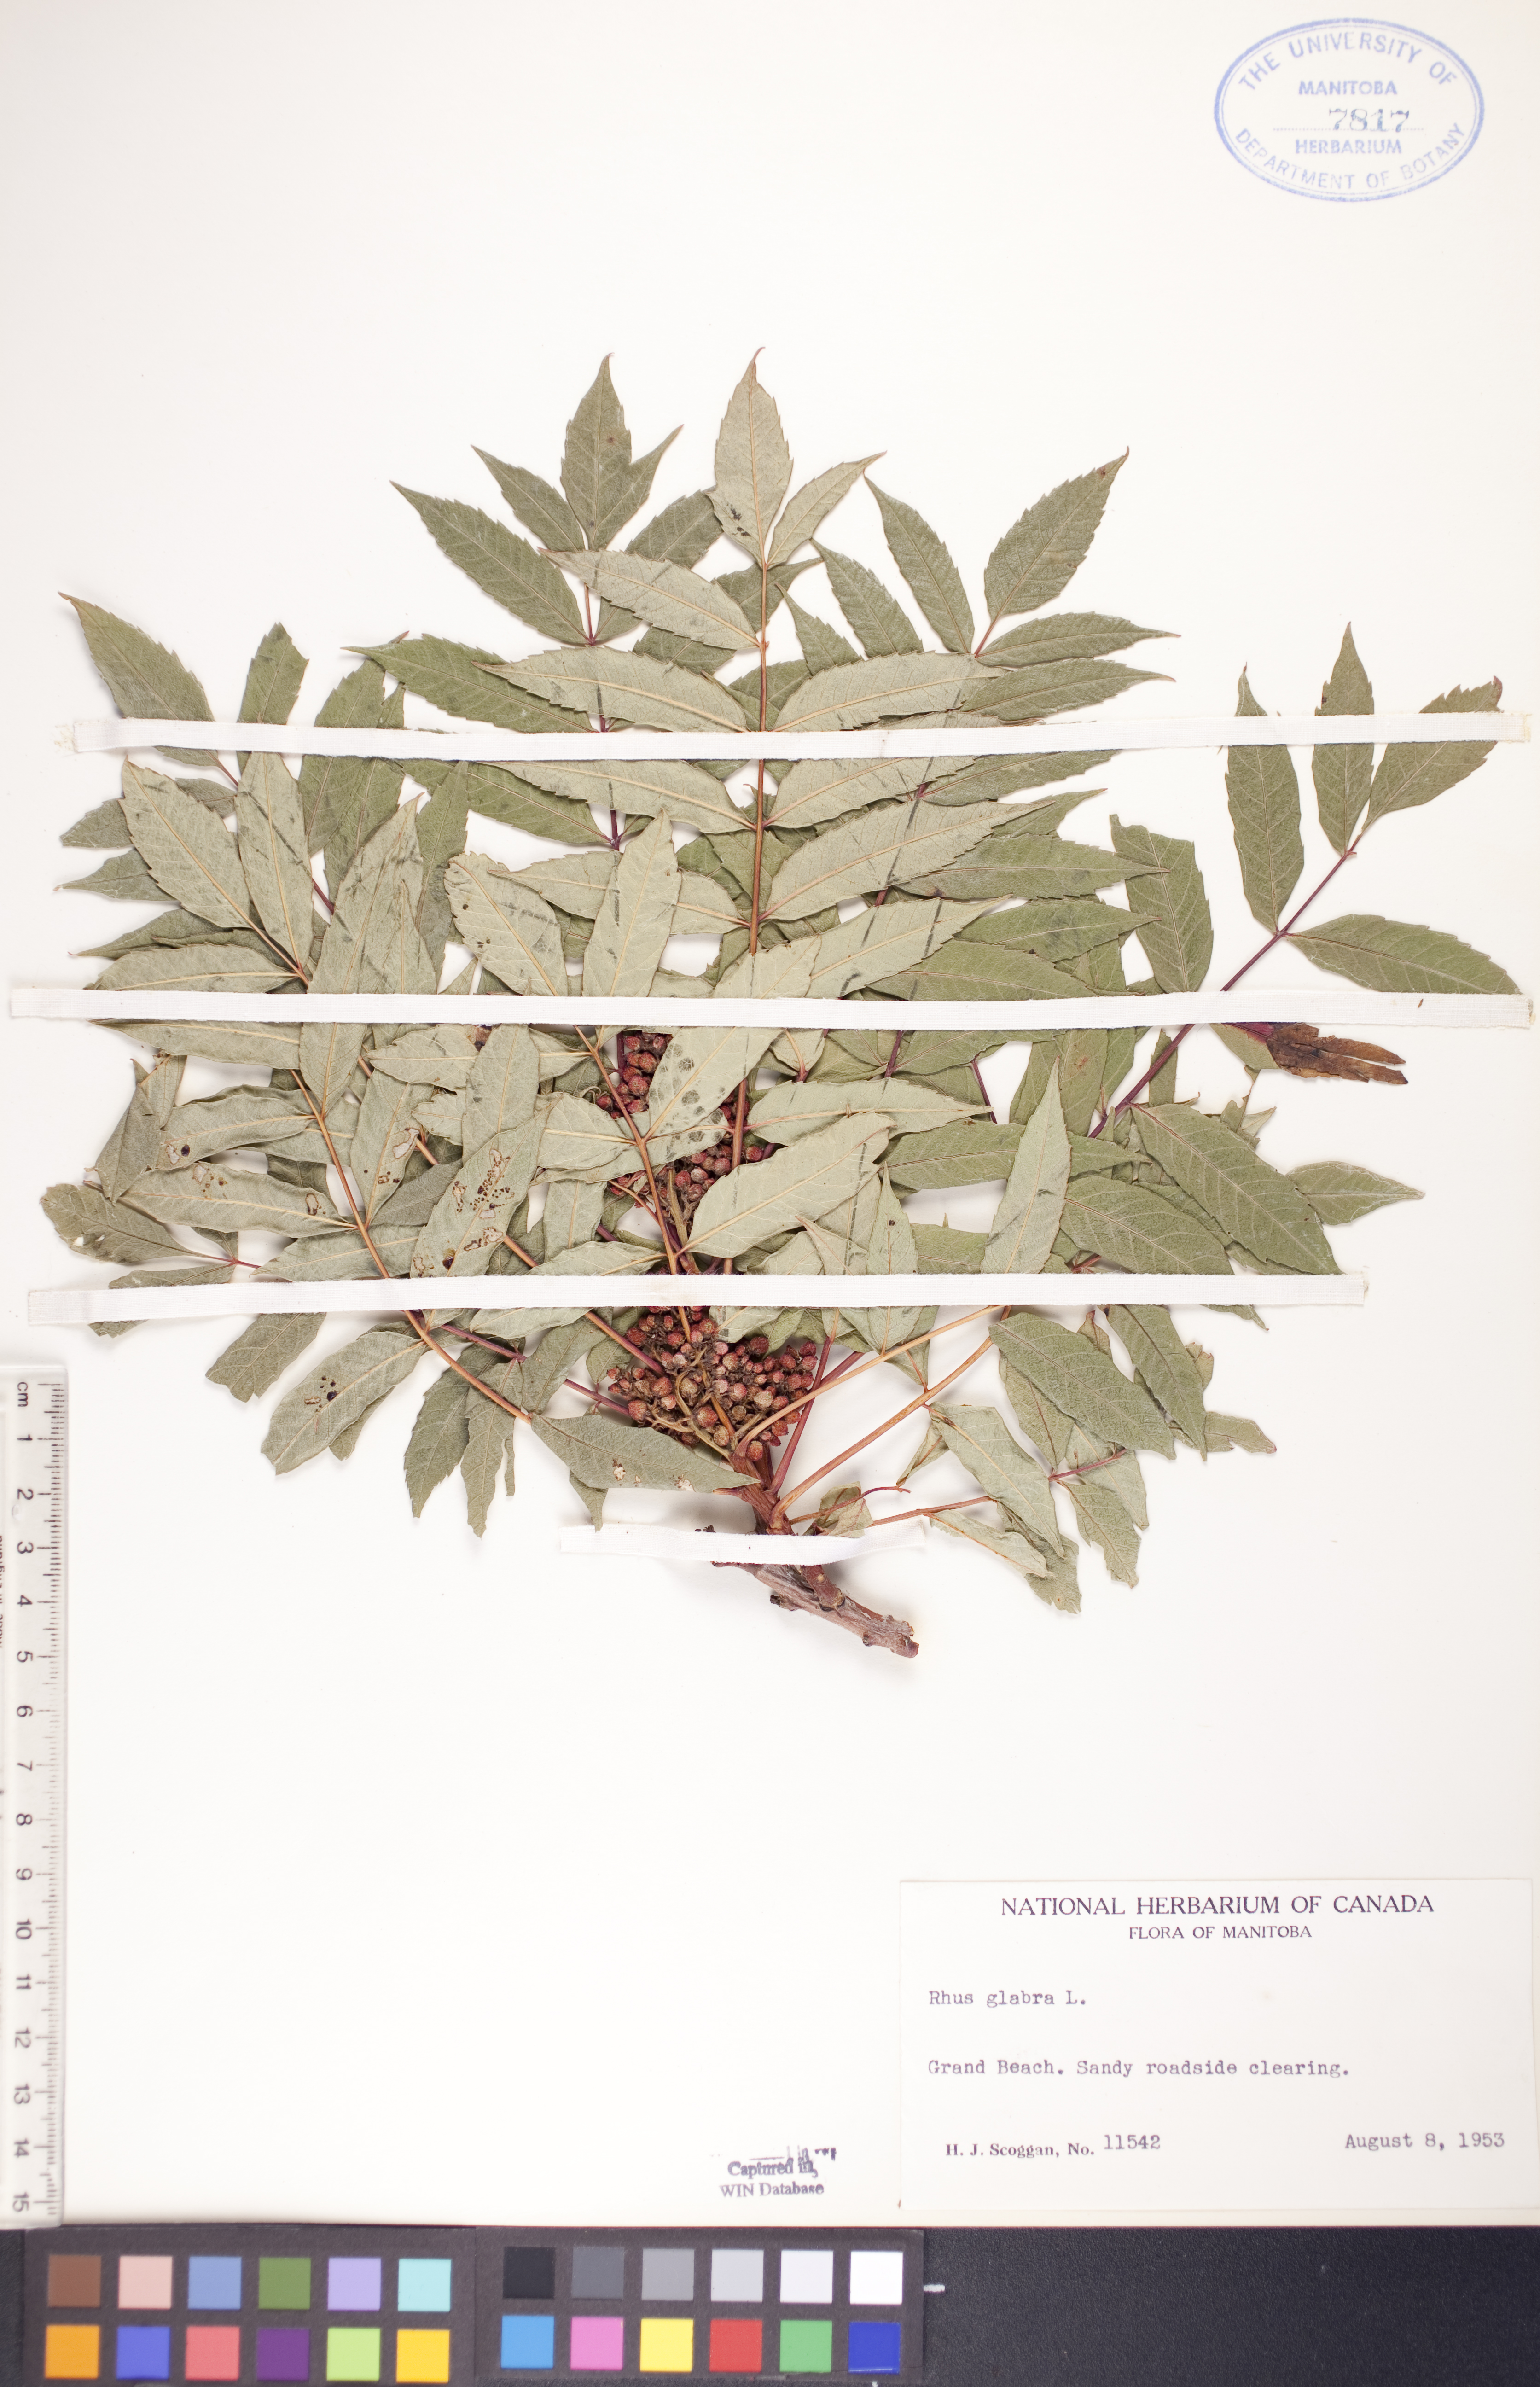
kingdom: Plantae
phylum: Tracheophyta
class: Magnoliopsida
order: Sapindales
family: Anacardiaceae
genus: Rhus
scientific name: Rhus glabra
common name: Scarlet sumac
